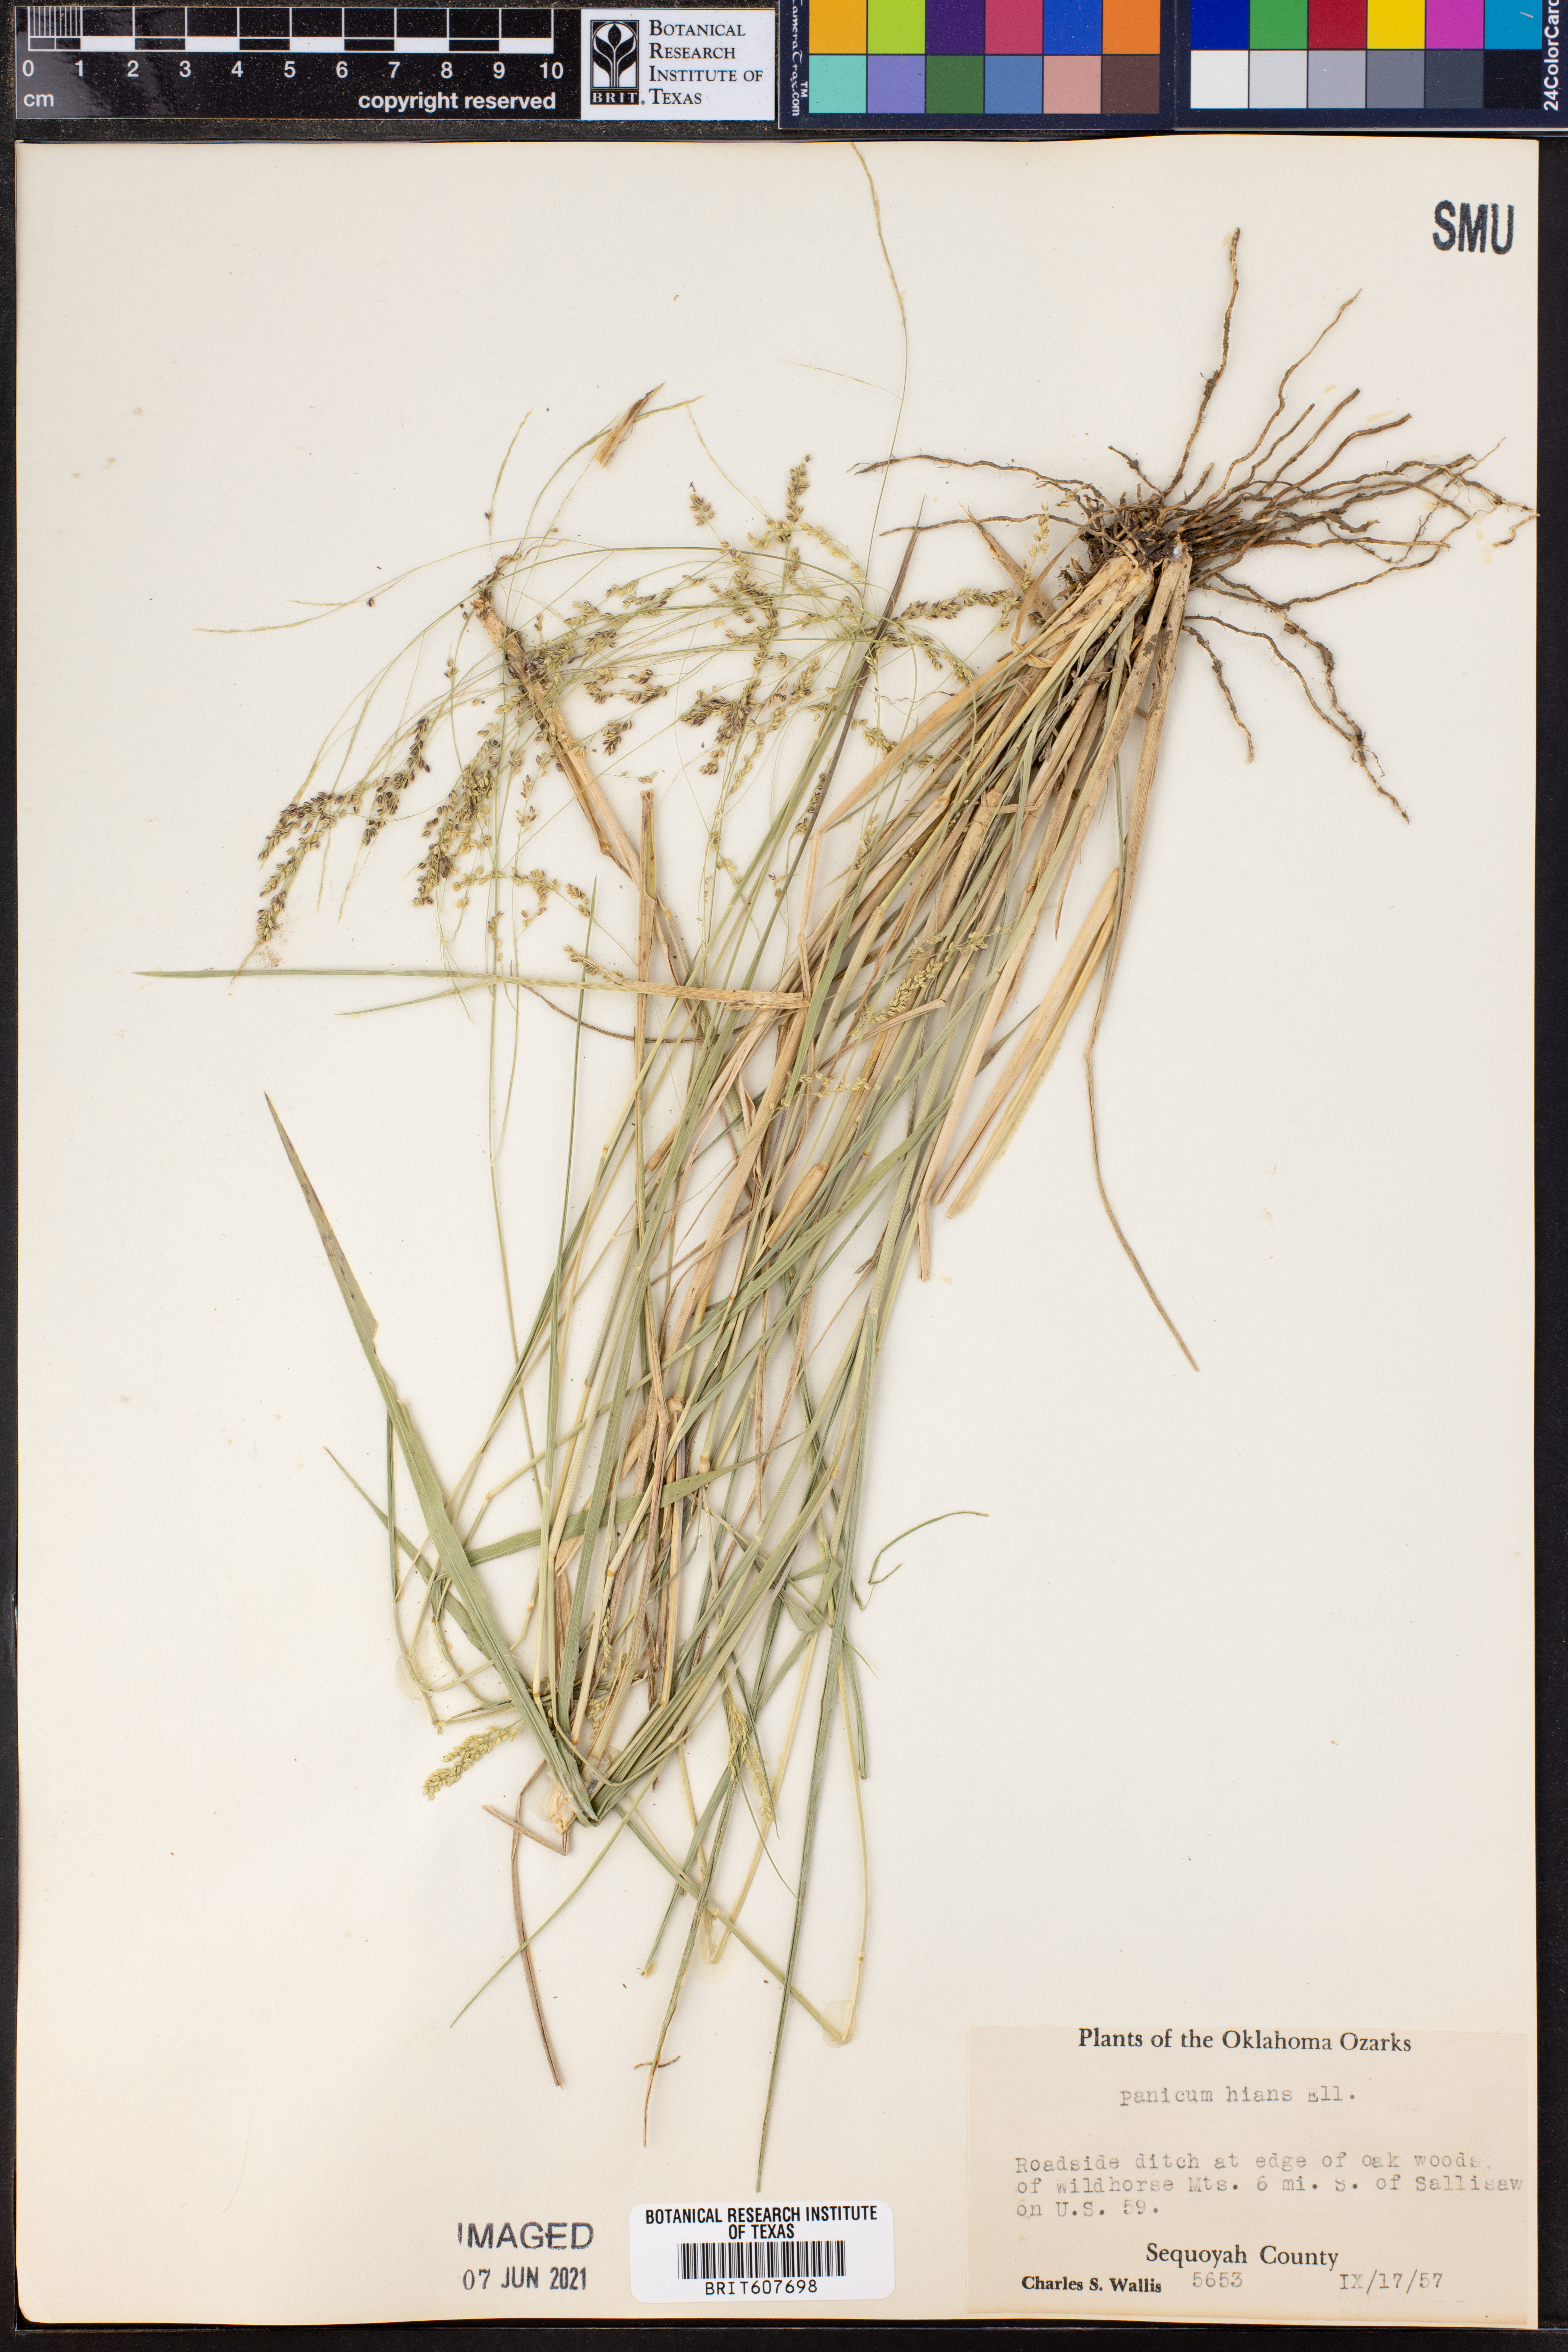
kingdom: Plantae
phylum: Tracheophyta
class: Liliopsida
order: Poales
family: Poaceae
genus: Coleataenia
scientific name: Coleataenia stenodes
